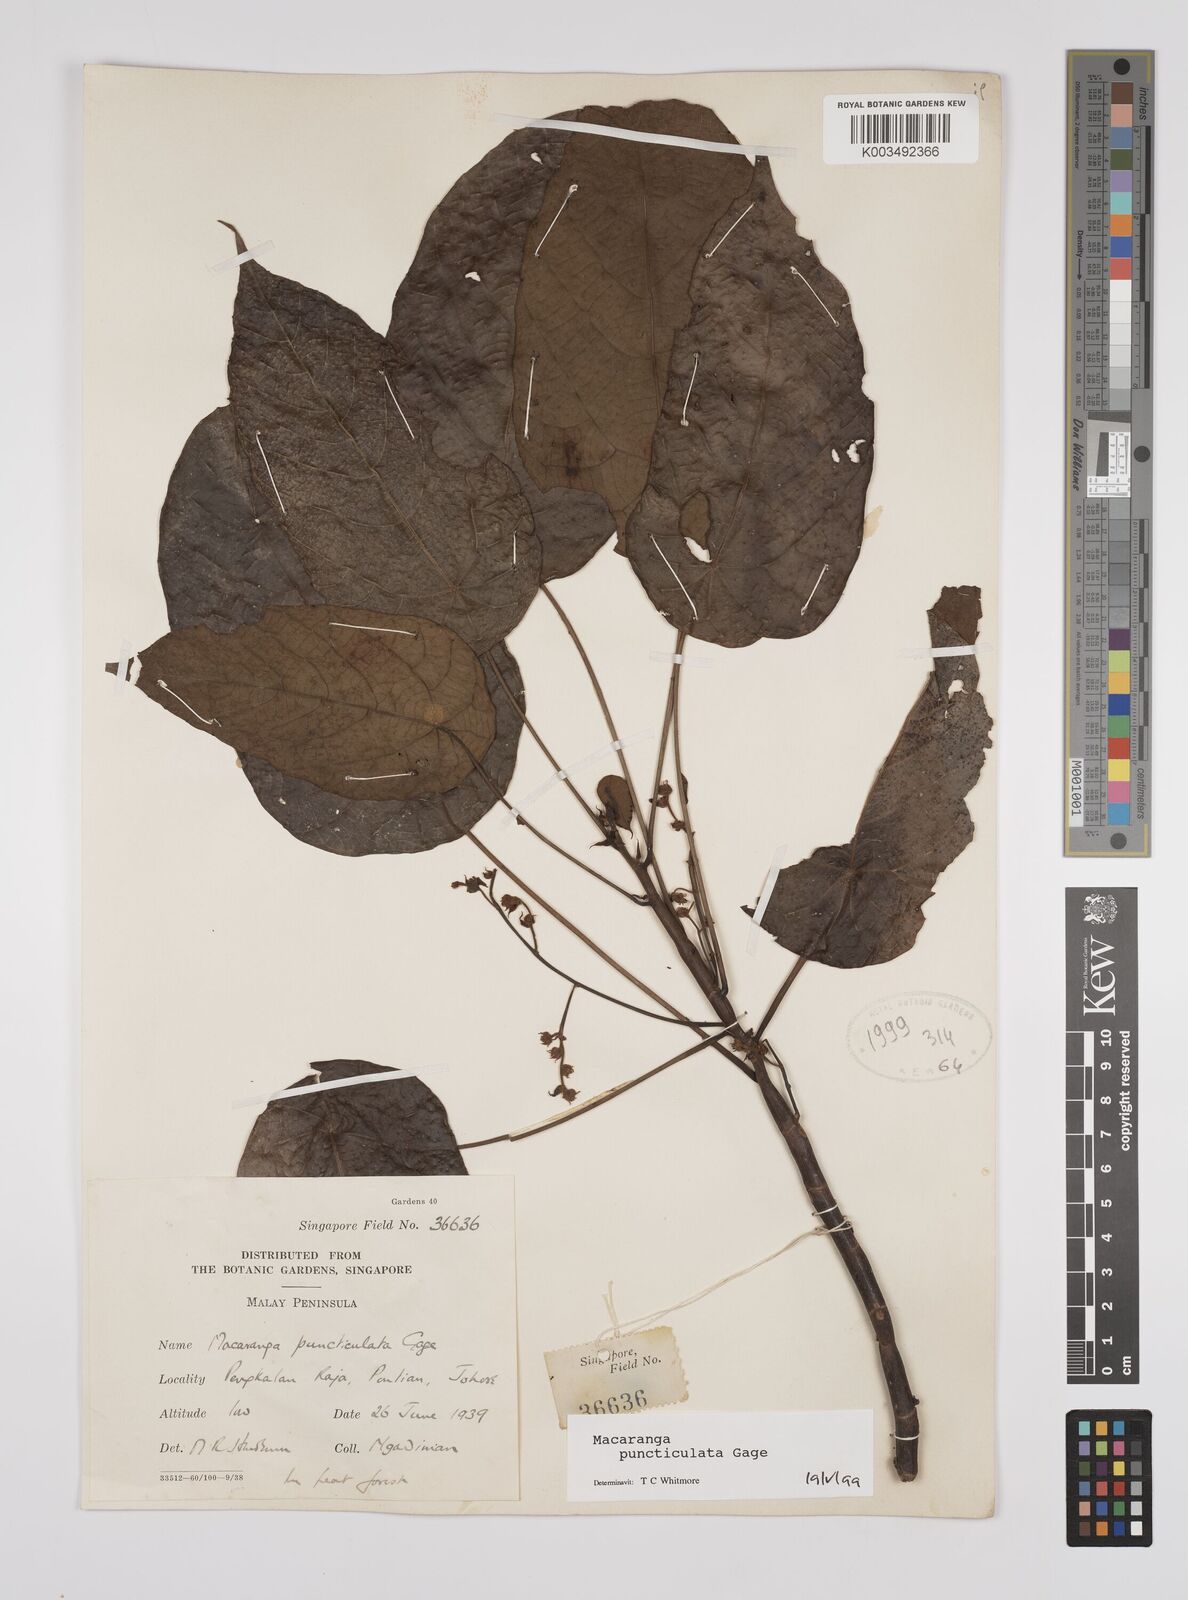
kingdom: Plantae
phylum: Tracheophyta
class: Magnoliopsida
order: Malpighiales
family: Euphorbiaceae
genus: Macaranga
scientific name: Macaranga puncticulata
